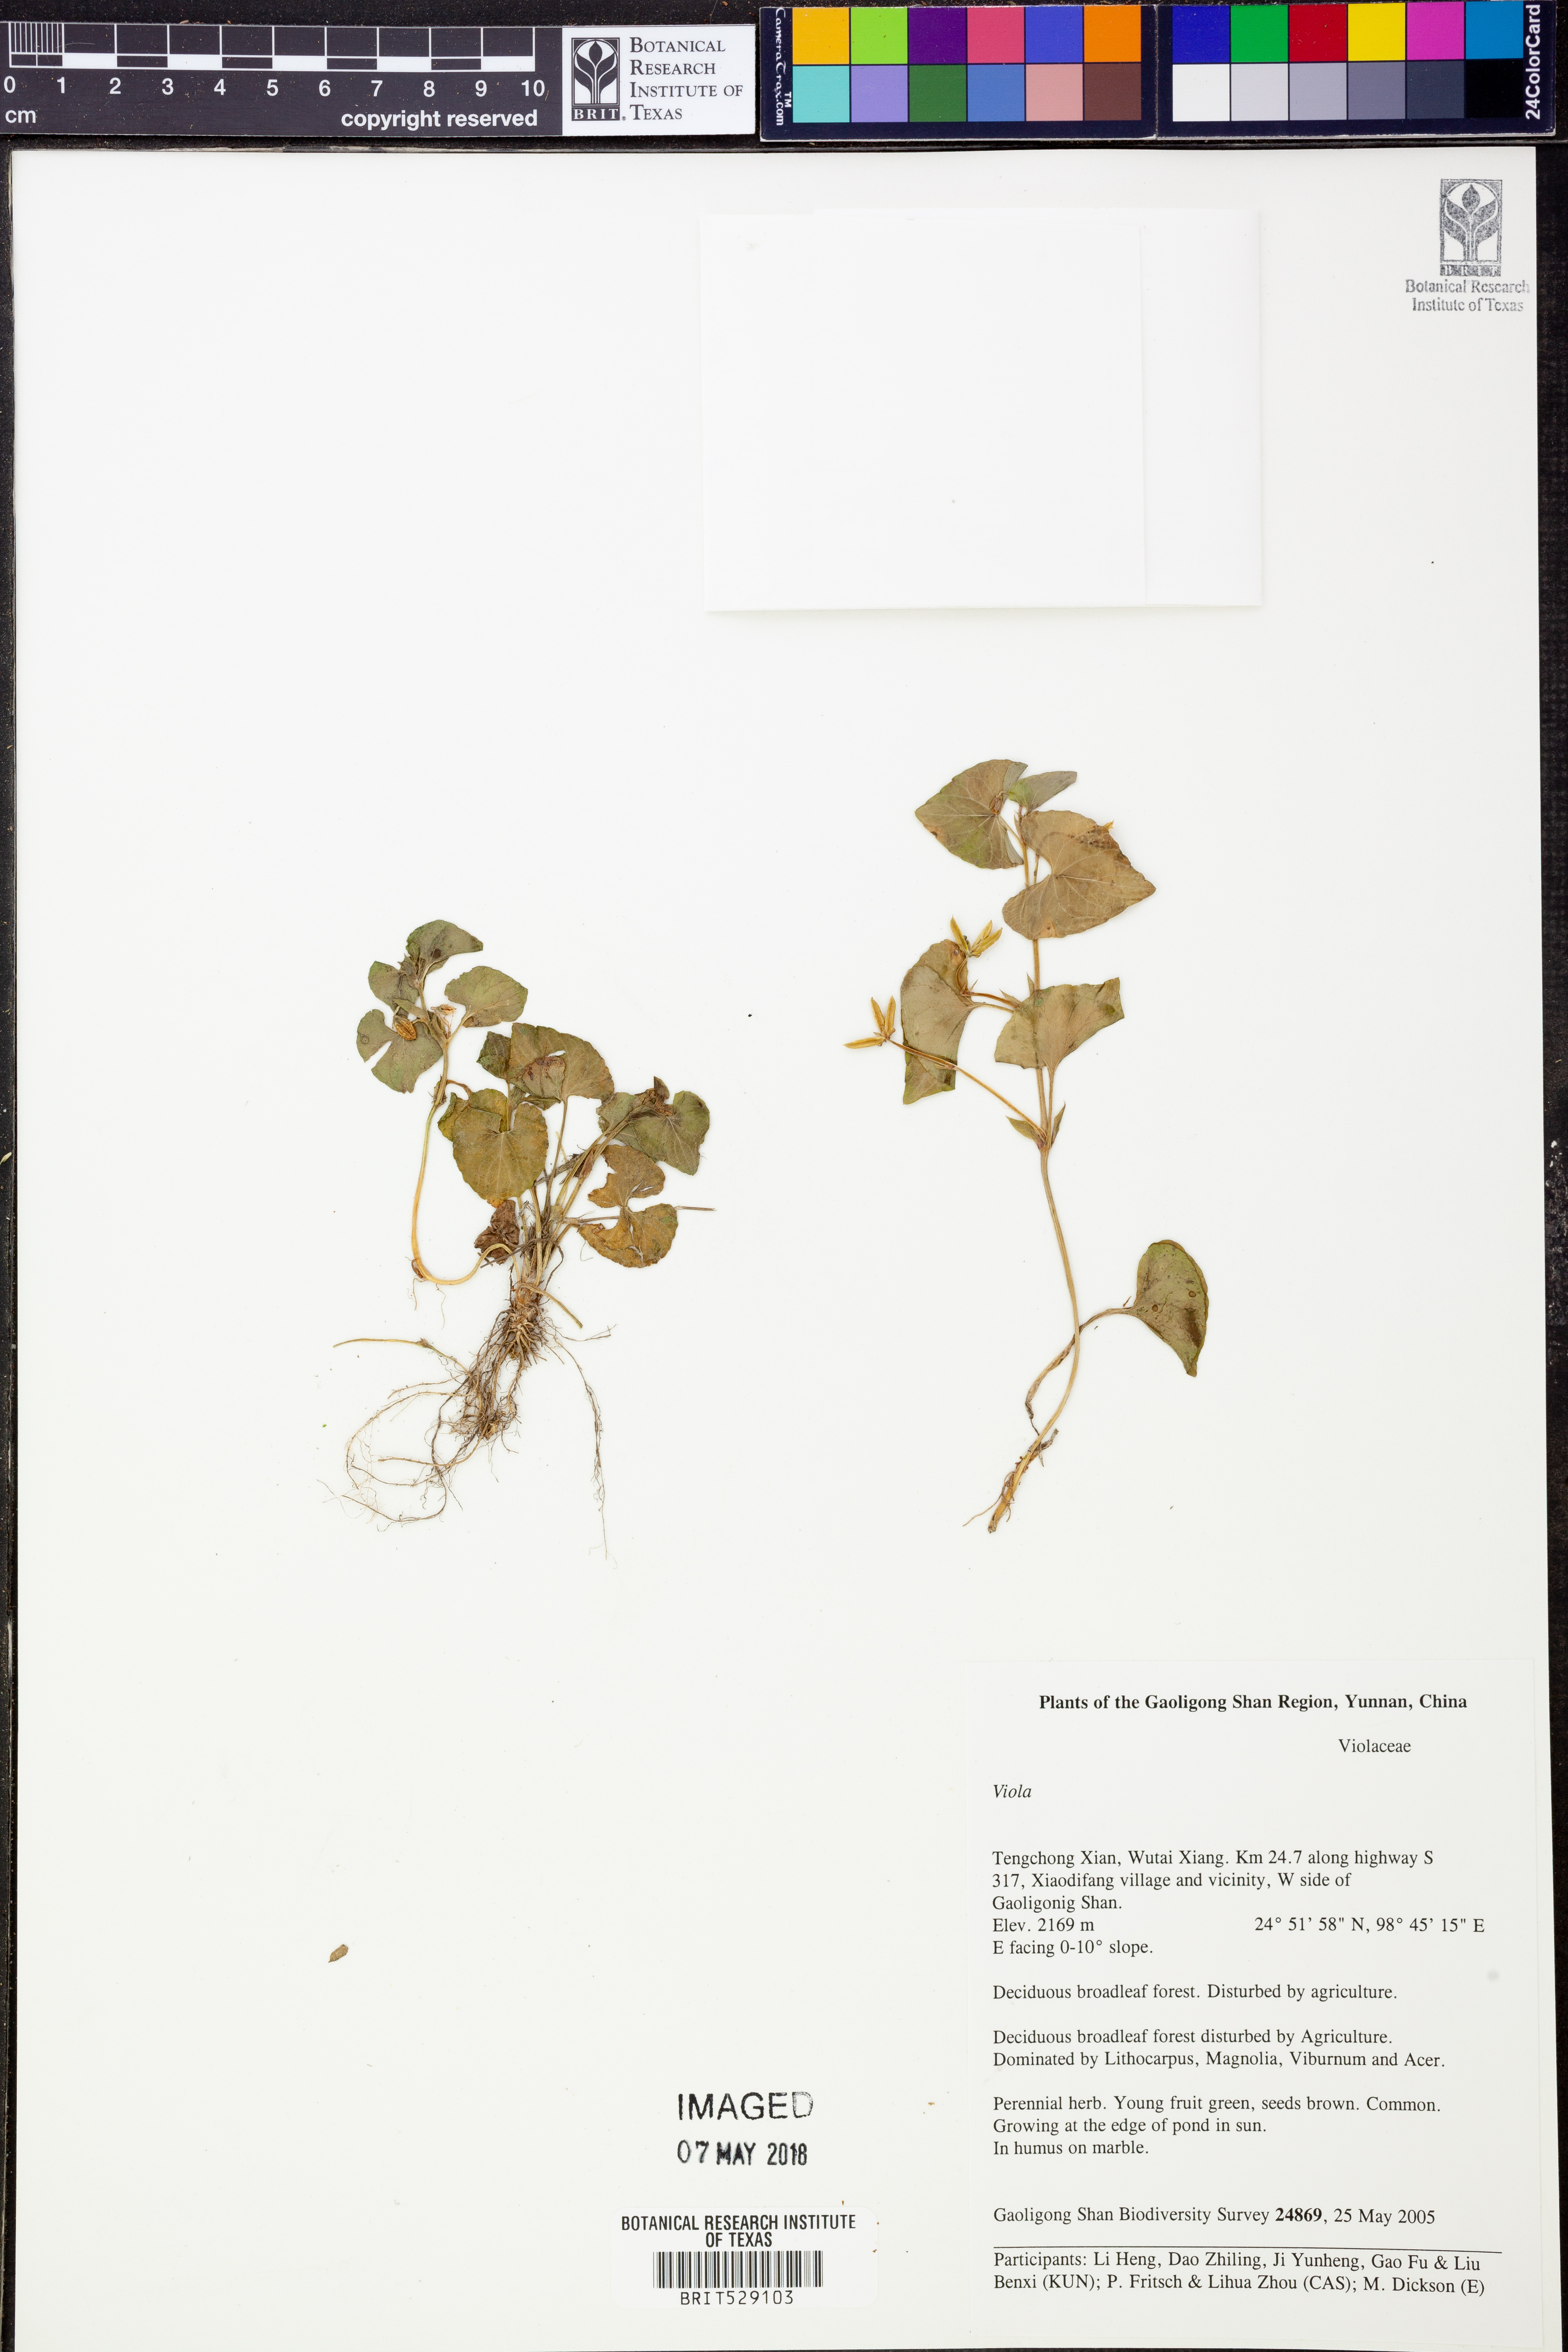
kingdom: Plantae
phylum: Tracheophyta
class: Magnoliopsida
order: Malpighiales
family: Violaceae
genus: Viola
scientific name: Viola
